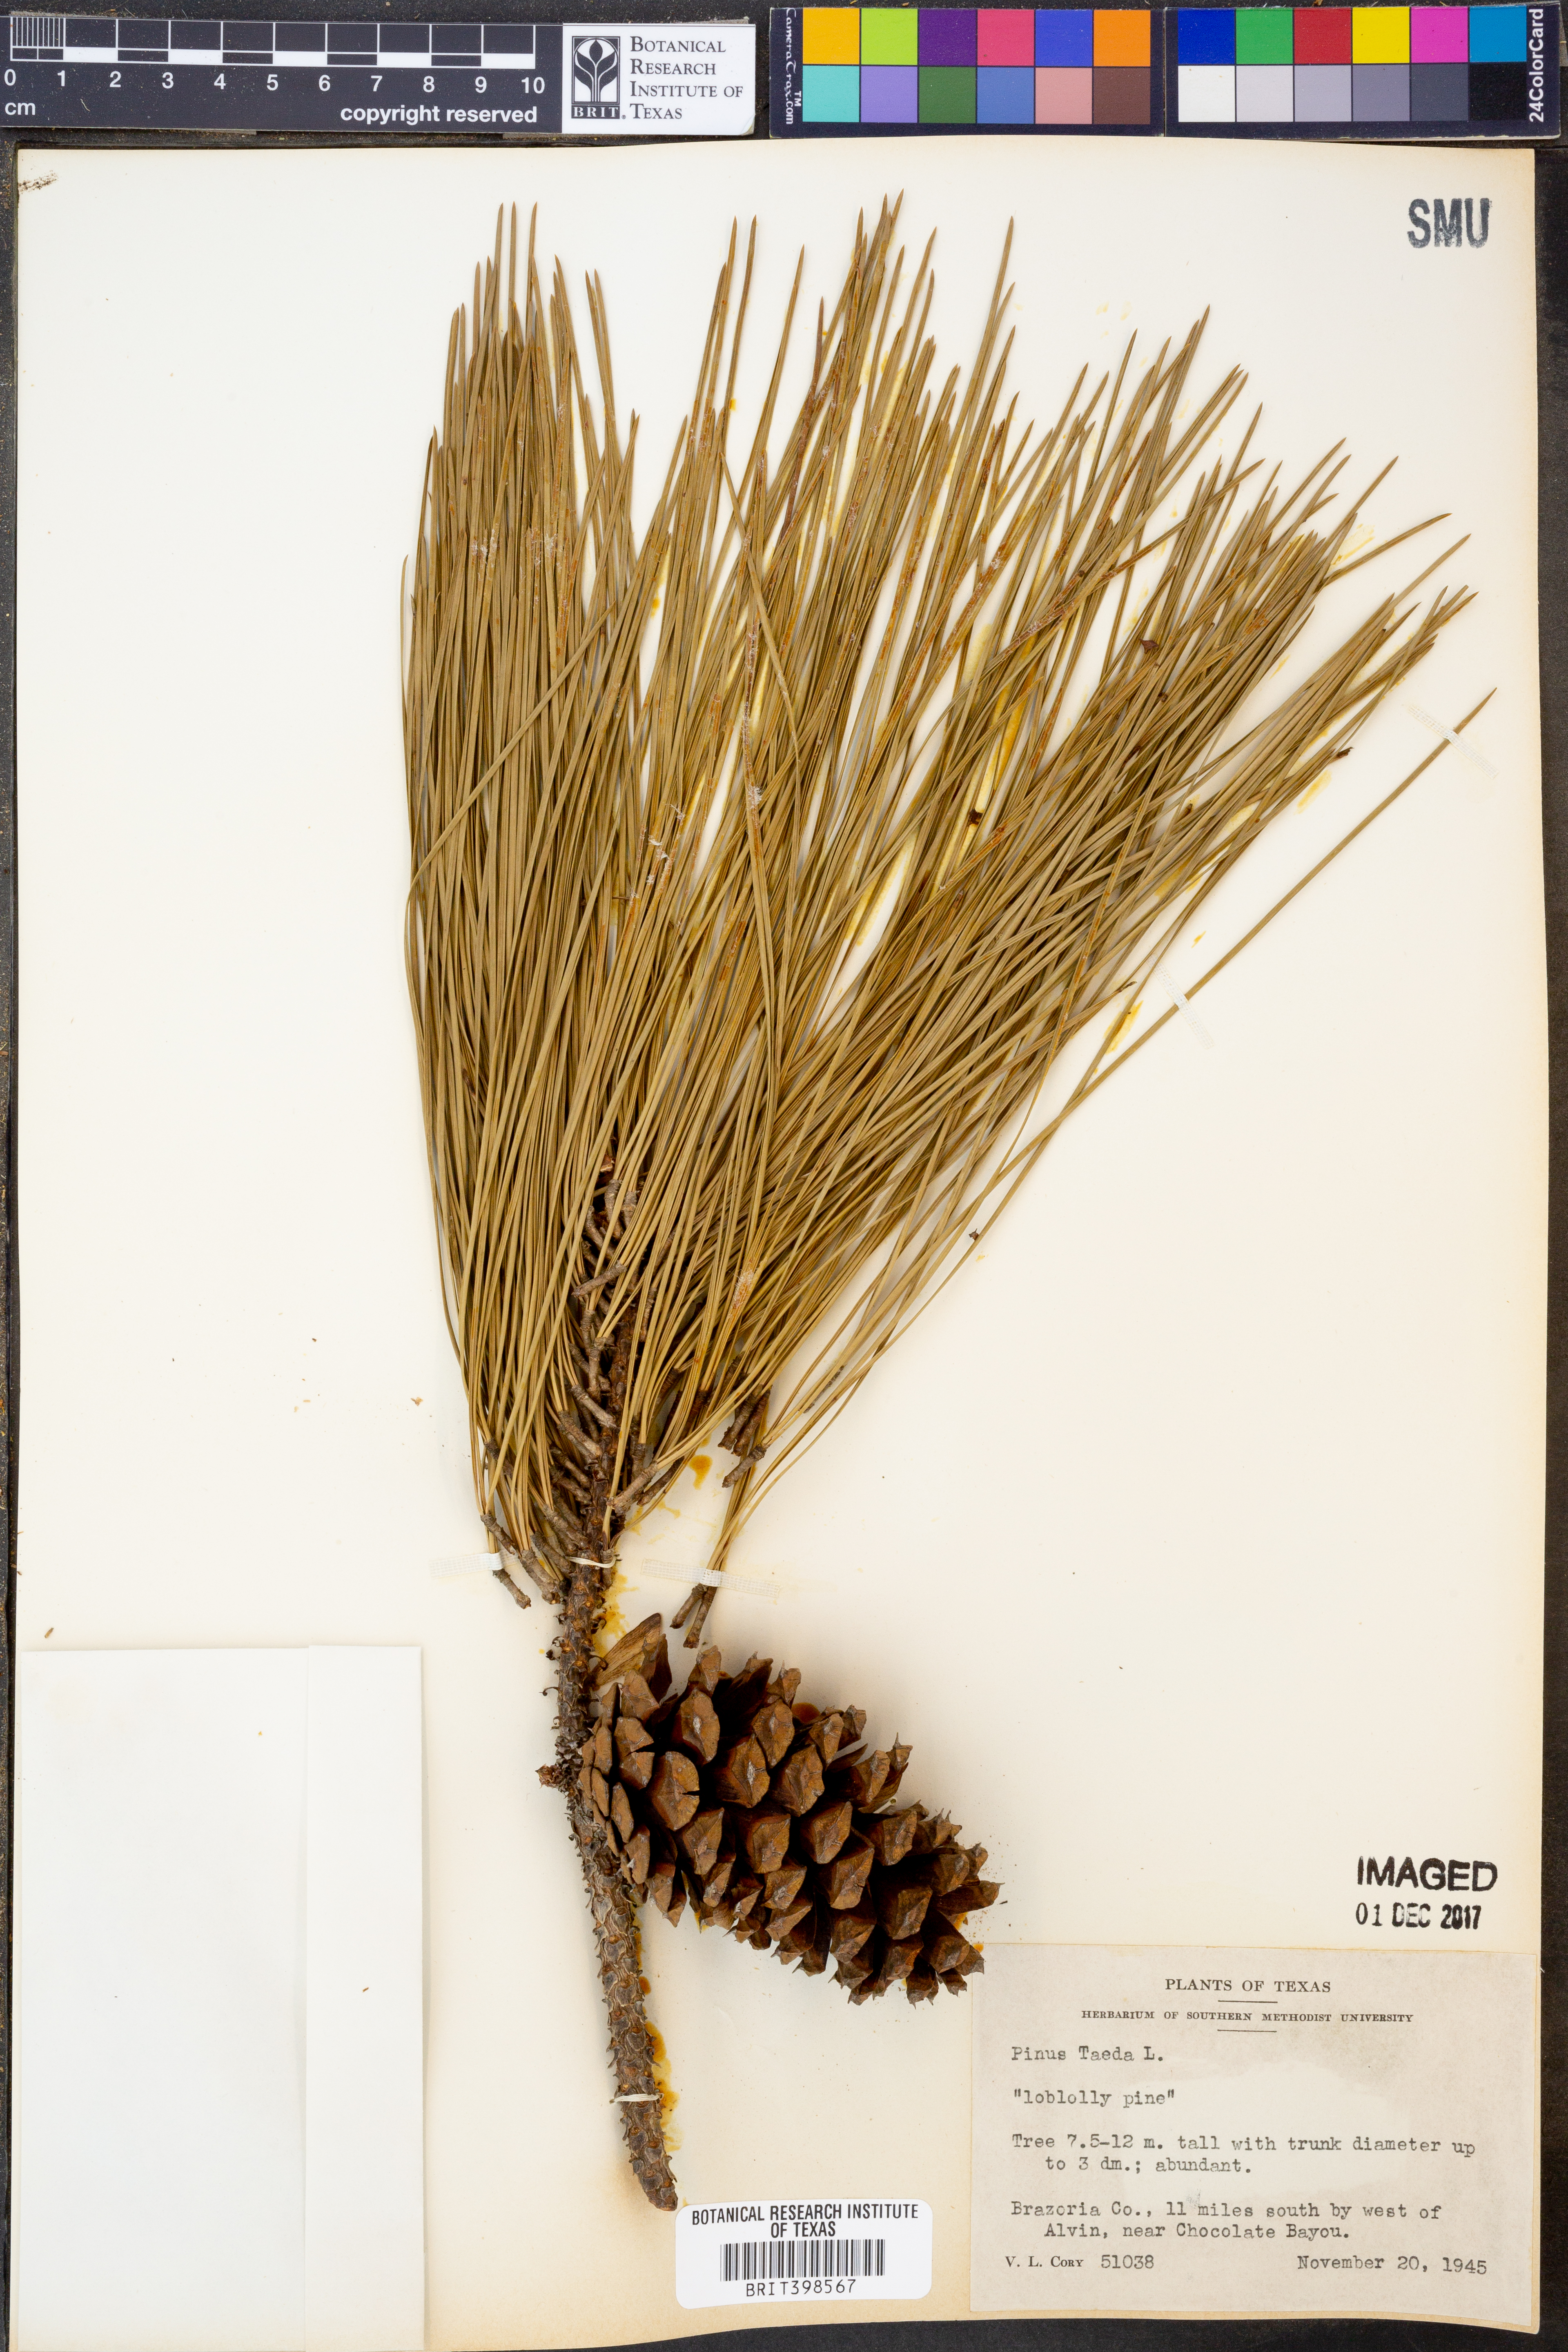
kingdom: Plantae
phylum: Tracheophyta
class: Pinopsida
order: Pinales
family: Pinaceae
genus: Pinus
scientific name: Pinus taeda
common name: Loblolly pine
